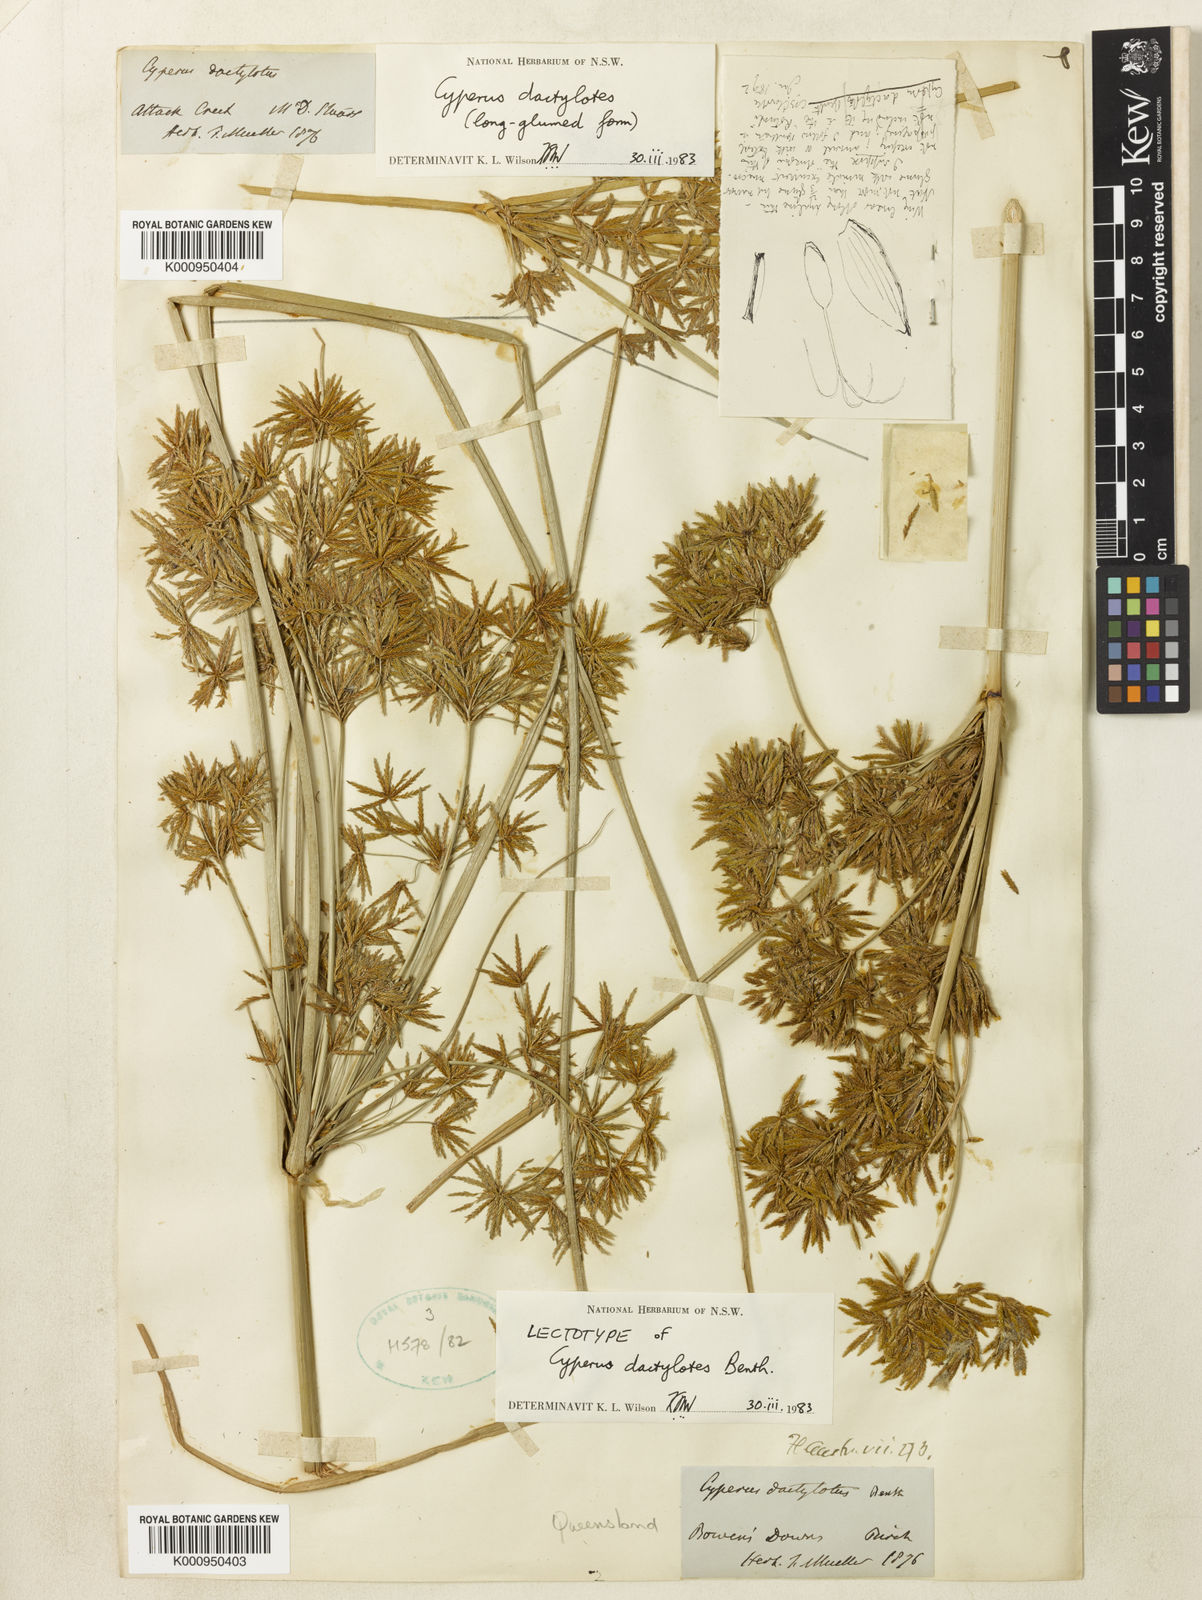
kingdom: Plantae
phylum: Tracheophyta
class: Liliopsida
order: Poales
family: Cyperaceae
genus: Cyperus
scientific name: Cyperus dactylotes
